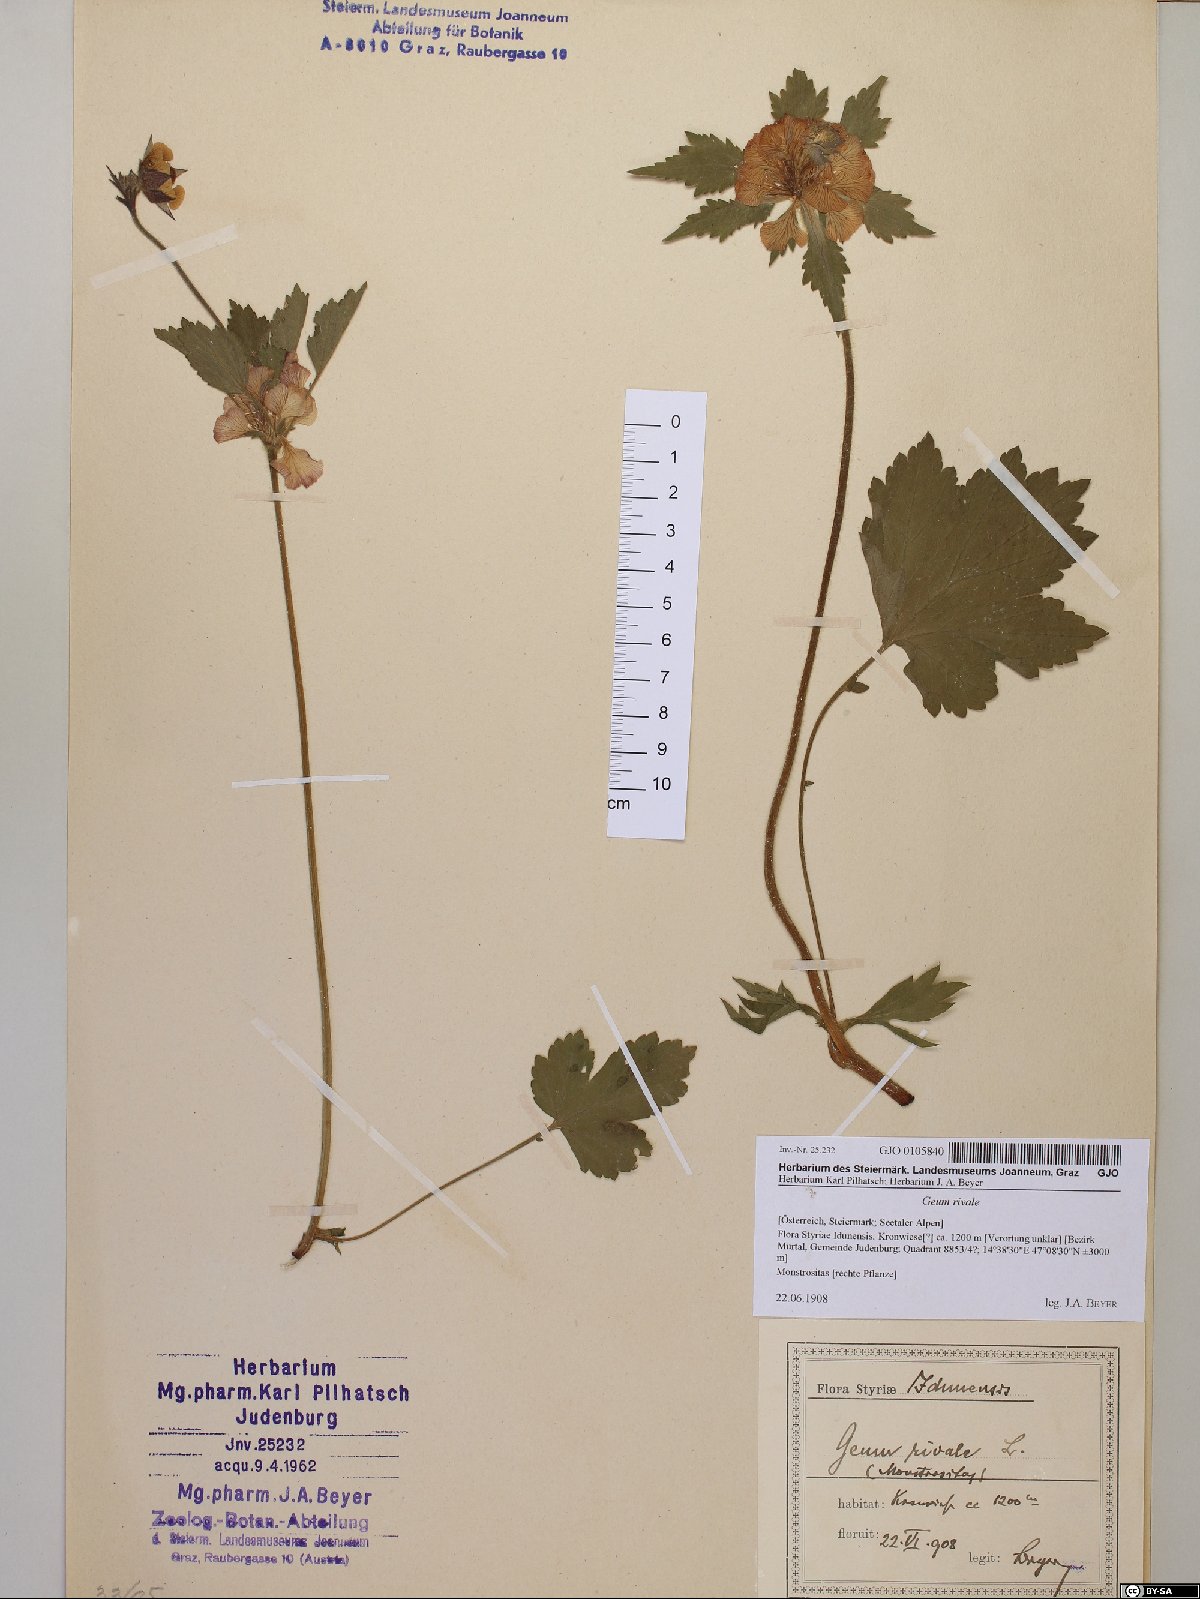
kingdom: Plantae
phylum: Tracheophyta
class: Magnoliopsida
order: Rosales
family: Rosaceae
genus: Geum
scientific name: Geum rivale
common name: Water avens
